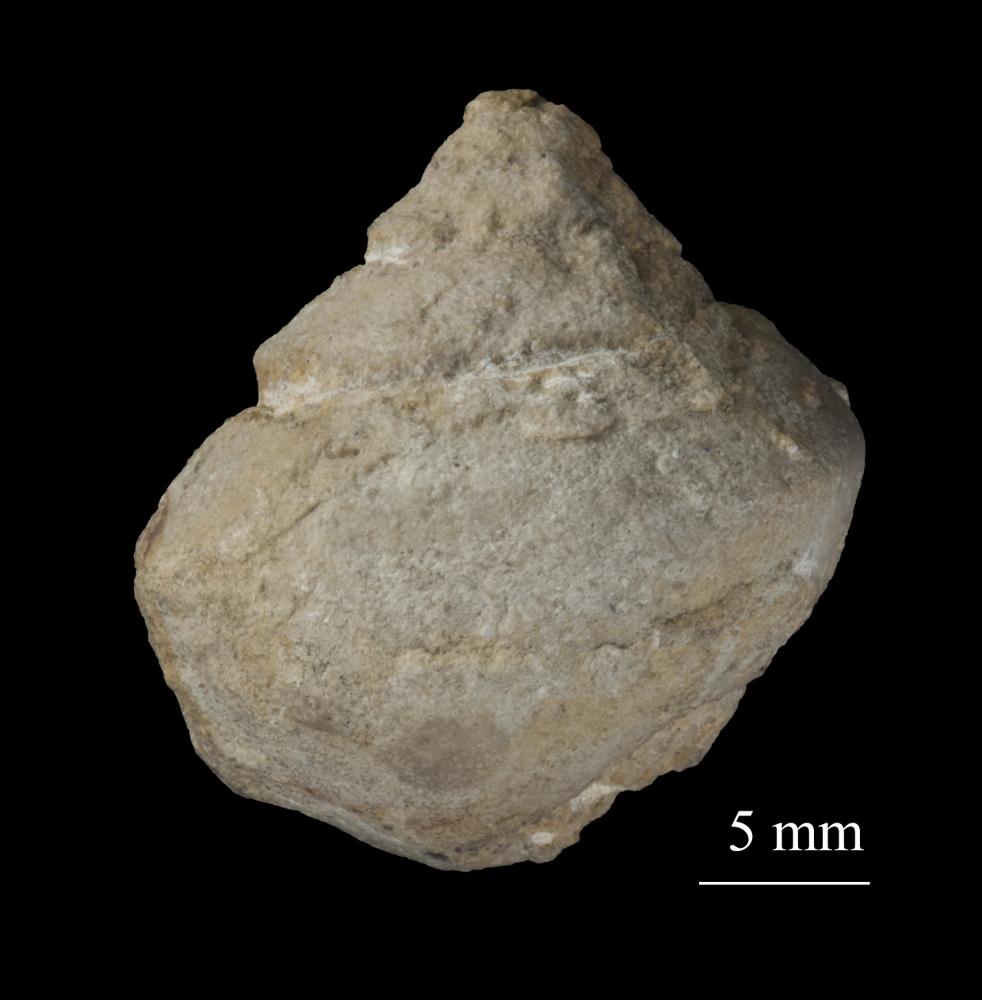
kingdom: Animalia
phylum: Mollusca
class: Gastropoda
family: Lophospiridae
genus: Lophospira
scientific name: Lophospira Worthenia subalata
